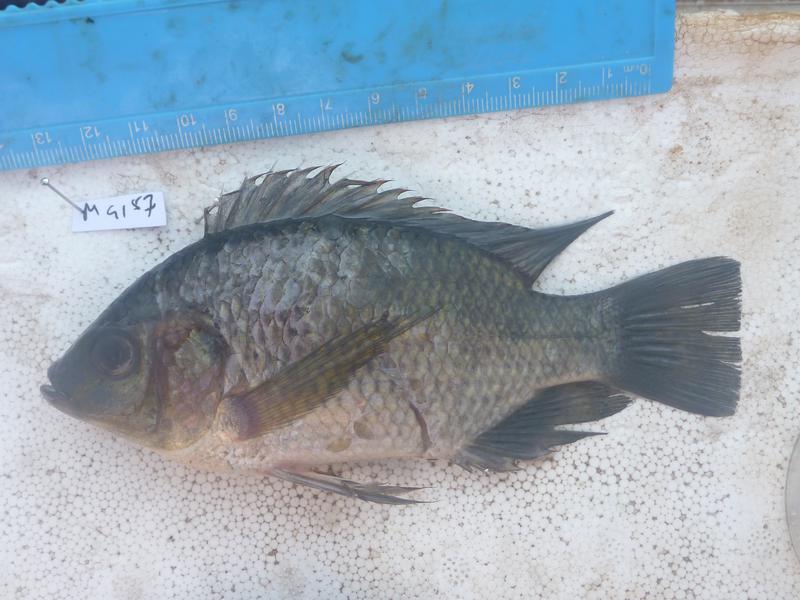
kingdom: Animalia
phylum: Chordata
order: Perciformes
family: Cichlidae
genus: Oreochromis
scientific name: Oreochromis upembae
